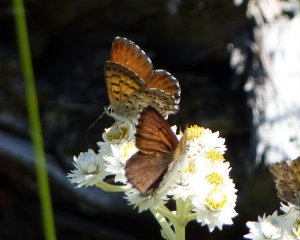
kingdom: Animalia
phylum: Arthropoda
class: Insecta
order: Lepidoptera
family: Lycaenidae
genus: Lycaena
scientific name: Lycaena mariposa
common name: Mariposa Copper
